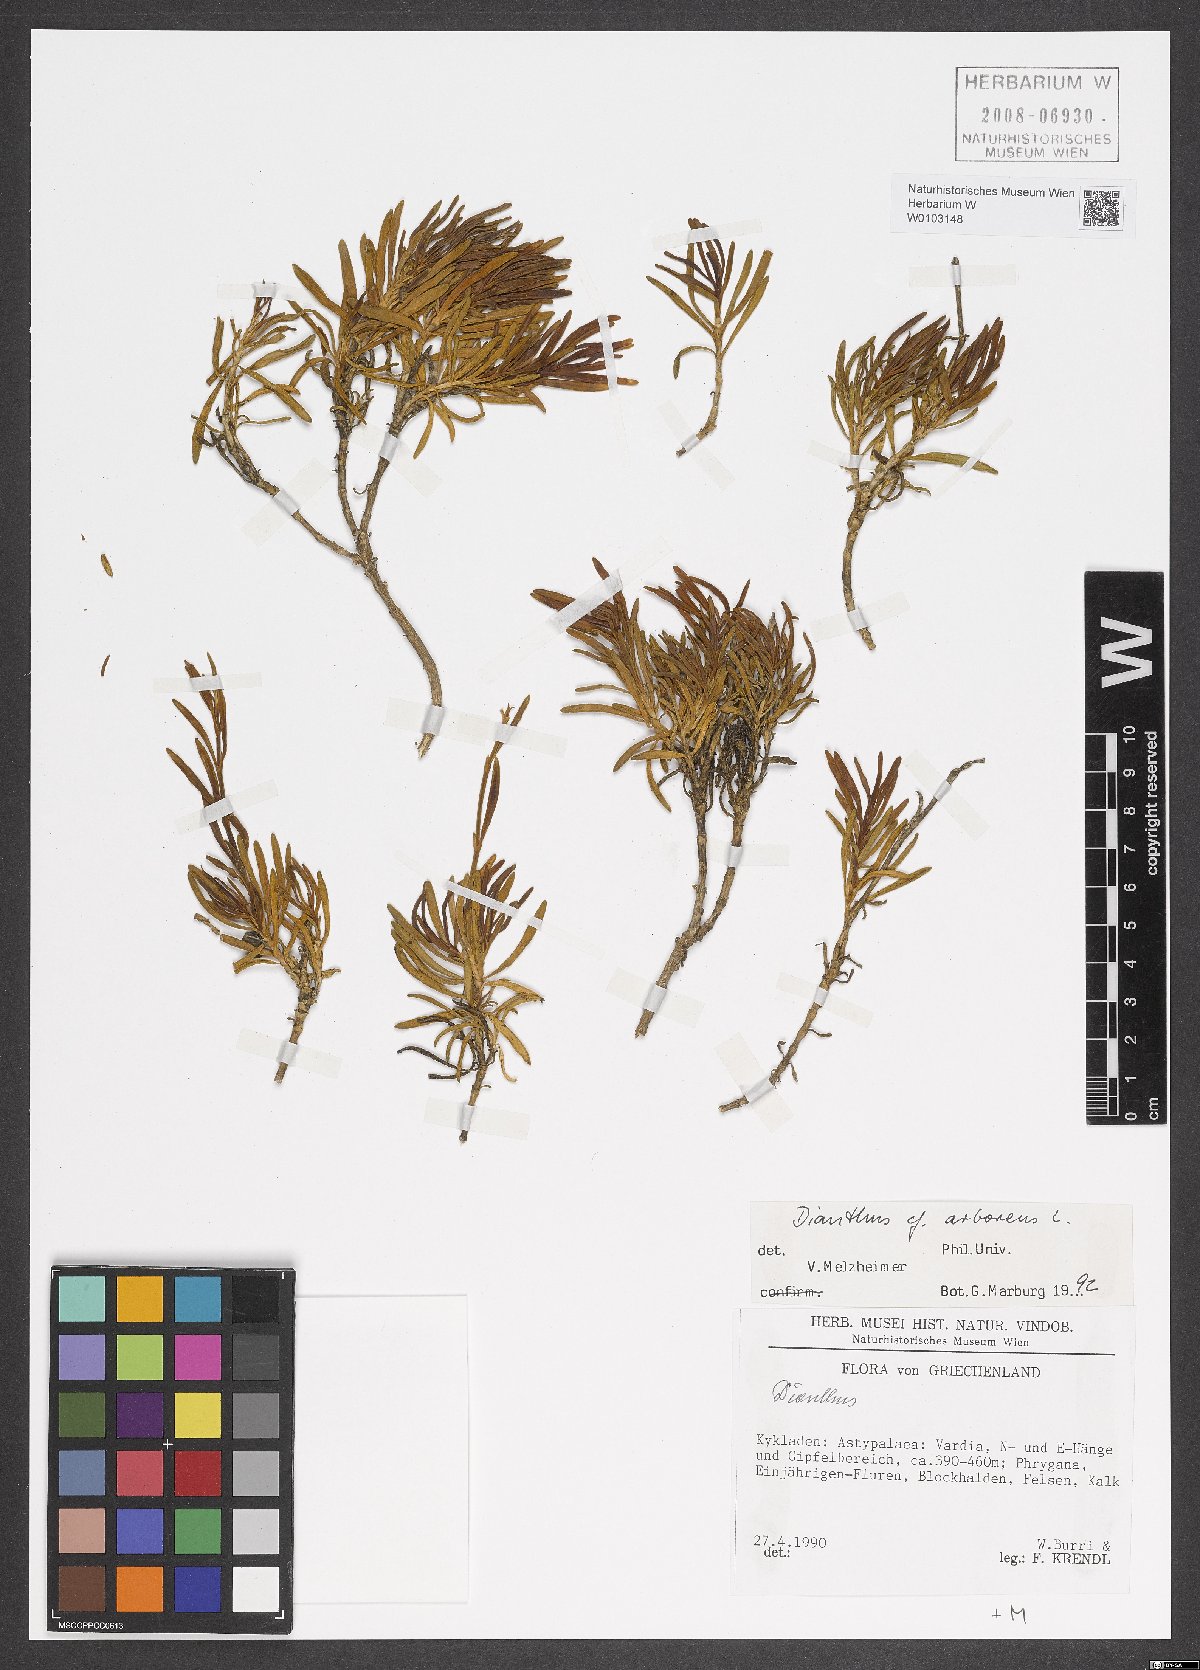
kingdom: Plantae
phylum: Tracheophyta
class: Magnoliopsida
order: Caryophyllales
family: Caryophyllaceae
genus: Dianthus
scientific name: Dianthus juniperinus
